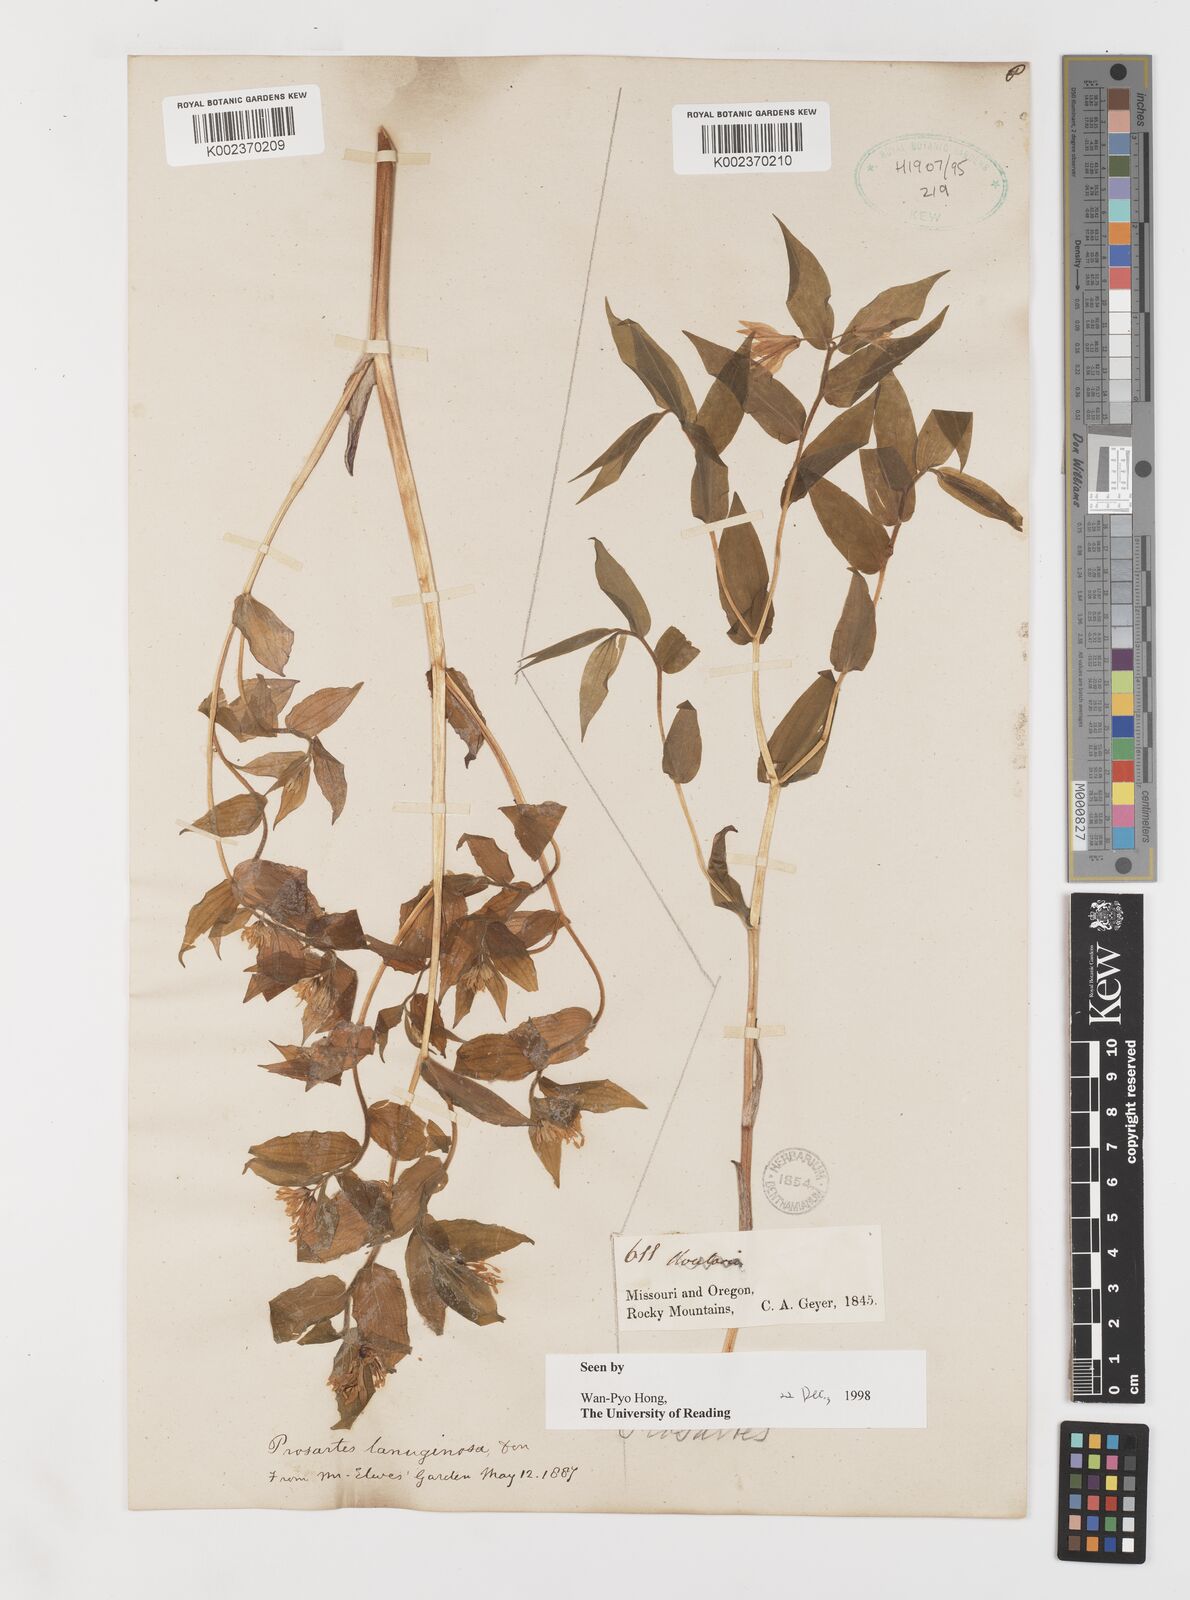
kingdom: Plantae
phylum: Tracheophyta
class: Liliopsida
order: Liliales
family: Liliaceae
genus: Prosartes
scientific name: Prosartes lanuginosa
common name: Hairy mandarin
